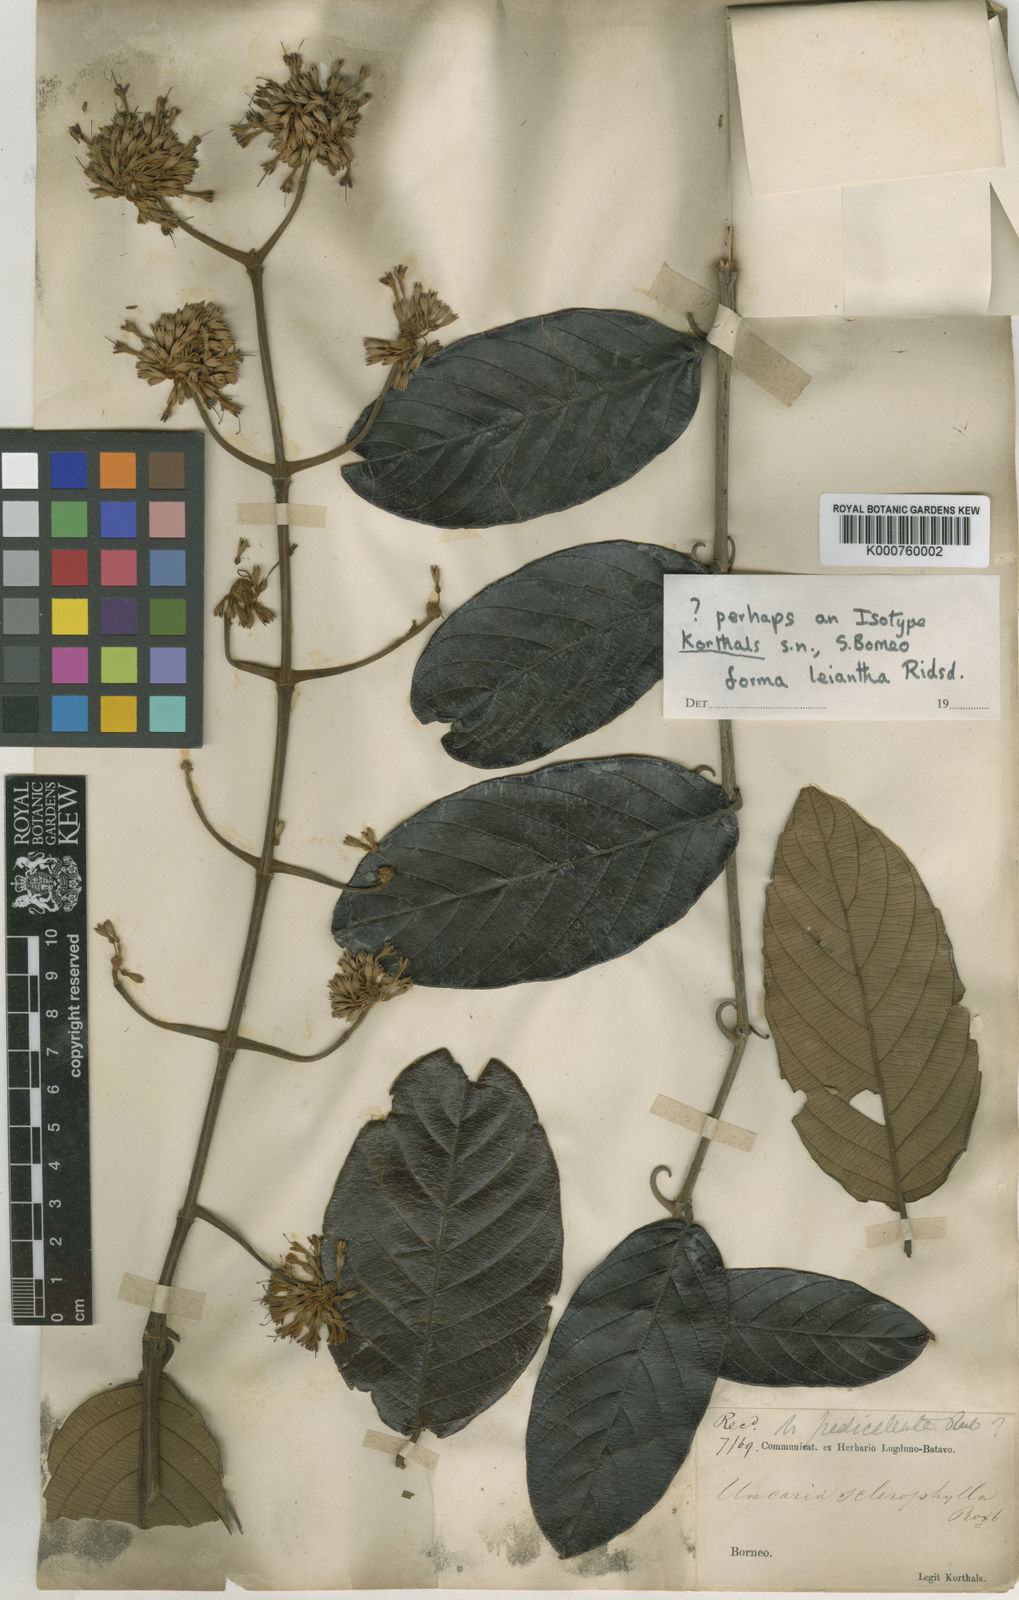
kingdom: Plantae
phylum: Tracheophyta
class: Magnoliopsida
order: Gentianales
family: Rubiaceae
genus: Uncaria
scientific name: Uncaria cordata
